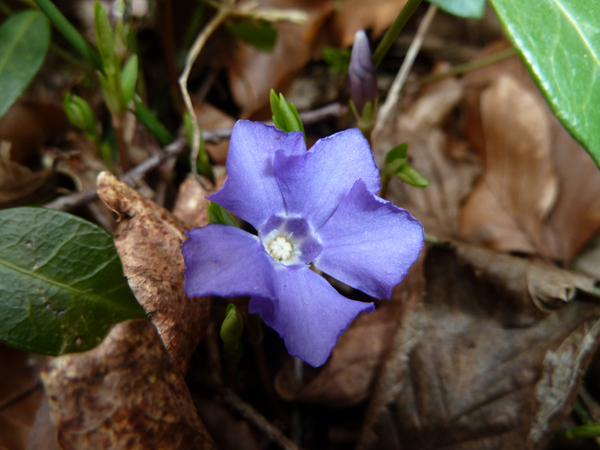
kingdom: Plantae
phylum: Tracheophyta
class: Magnoliopsida
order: Gentianales
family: Apocynaceae
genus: Vinca
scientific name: Vinca minor
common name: Lesser periwinkle
